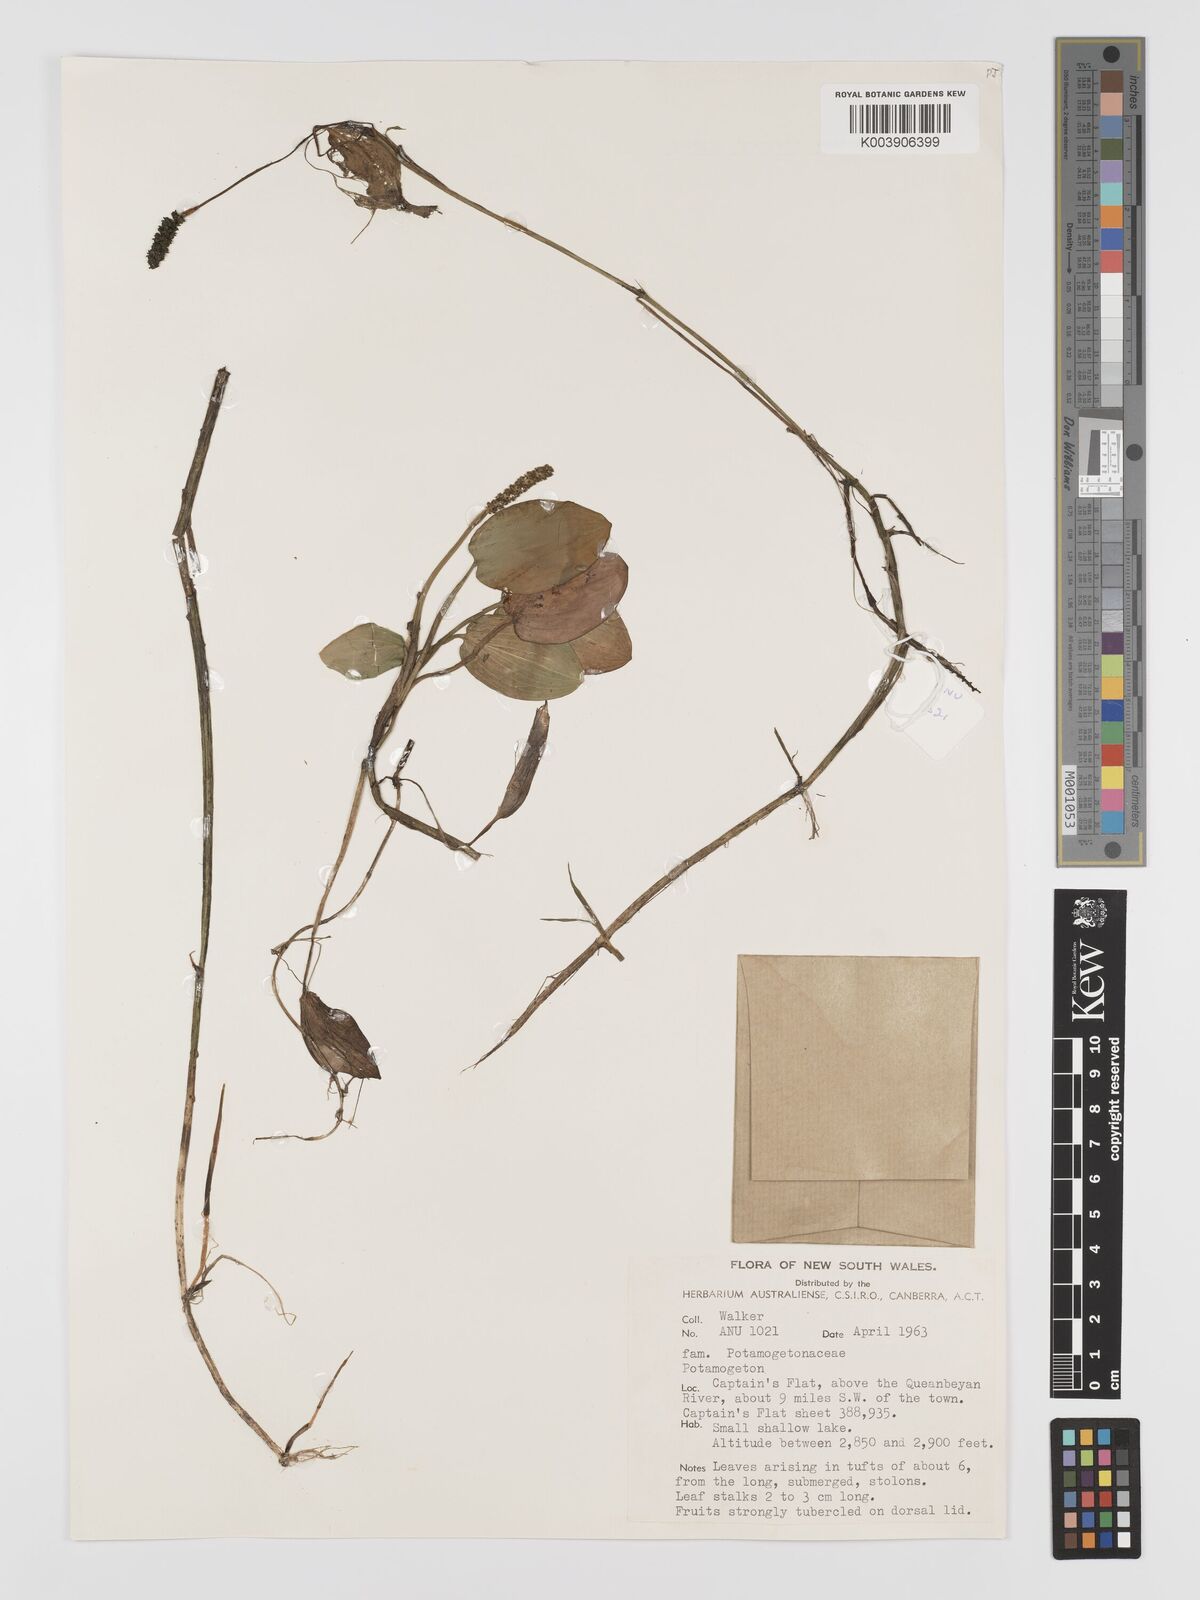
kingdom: Plantae
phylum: Tracheophyta
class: Liliopsida
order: Alismatales
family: Potamogetonaceae
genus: Potamogeton
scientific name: Potamogeton tricarinatus
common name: Pondweed
